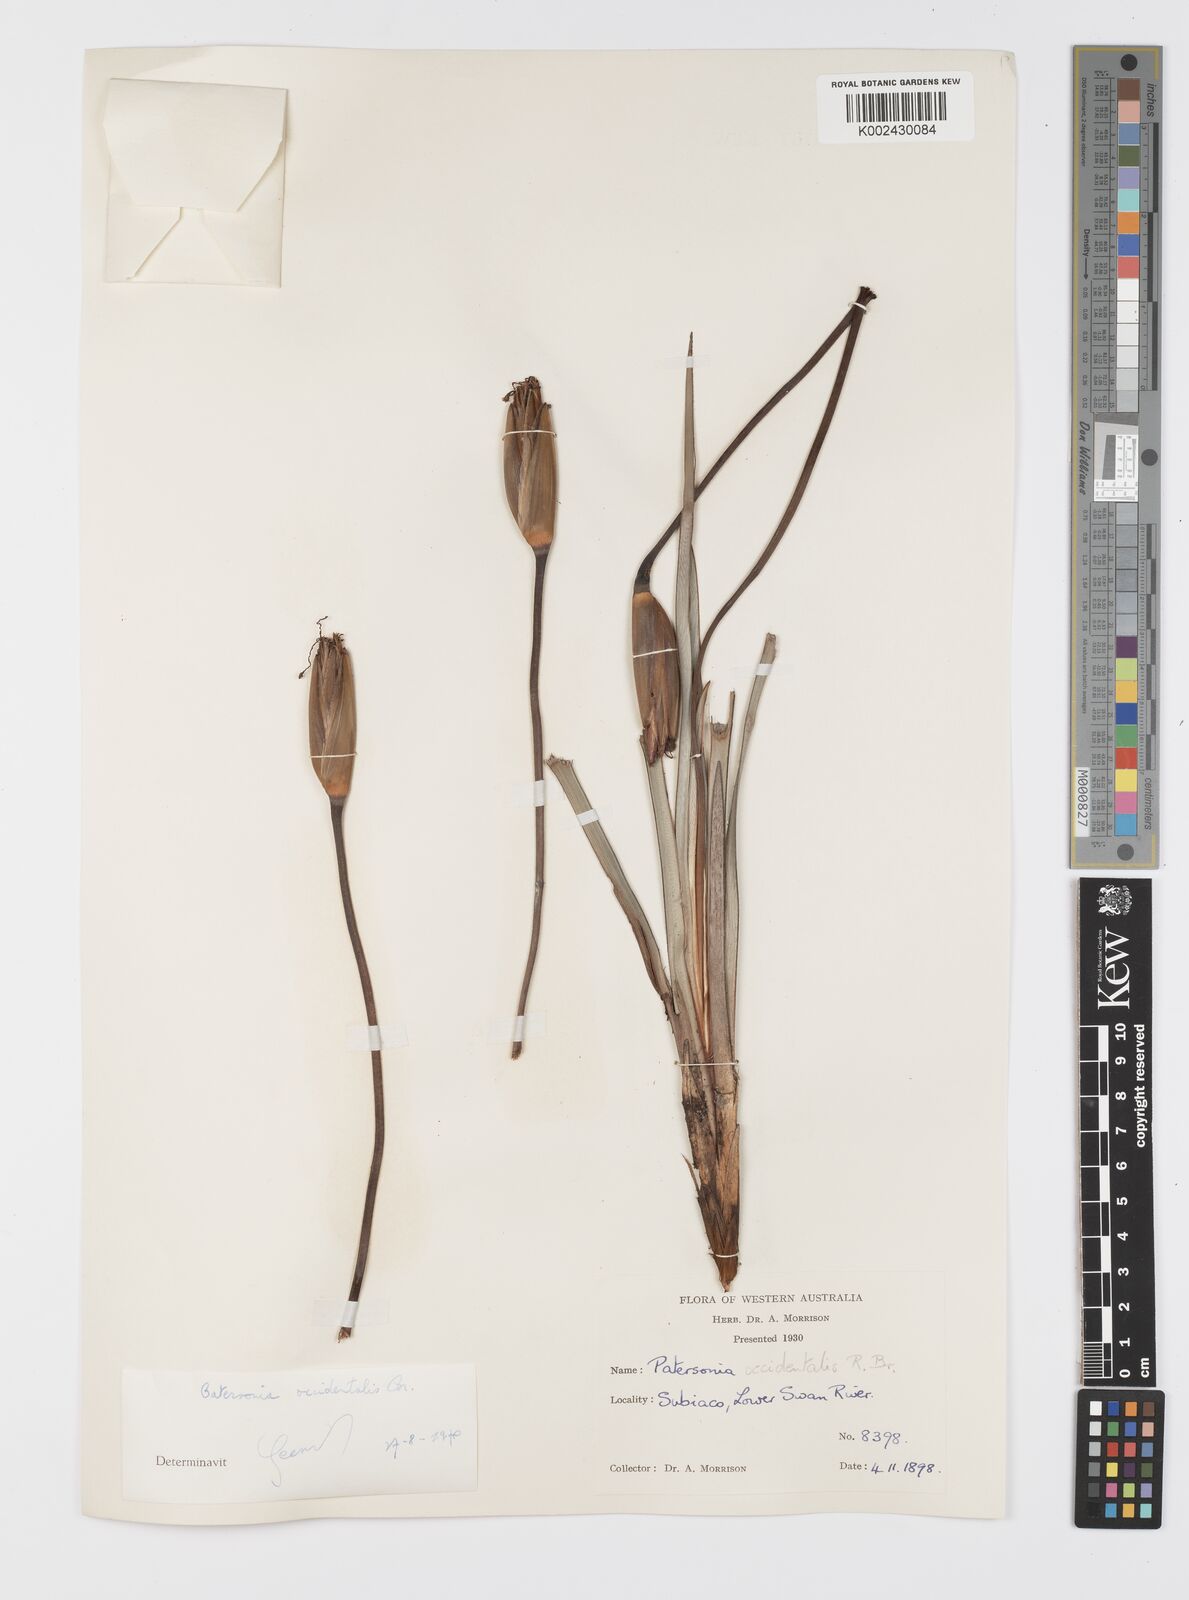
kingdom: Plantae
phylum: Tracheophyta
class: Liliopsida
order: Asparagales
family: Iridaceae
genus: Patersonia
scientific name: Patersonia occidentalis
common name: Long purple-flag
